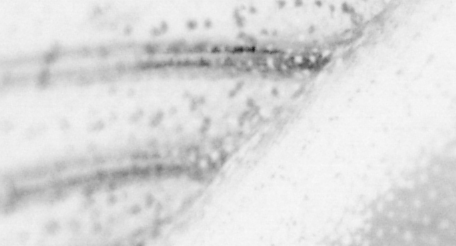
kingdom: Animalia
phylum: Chordata
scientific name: Chordata
